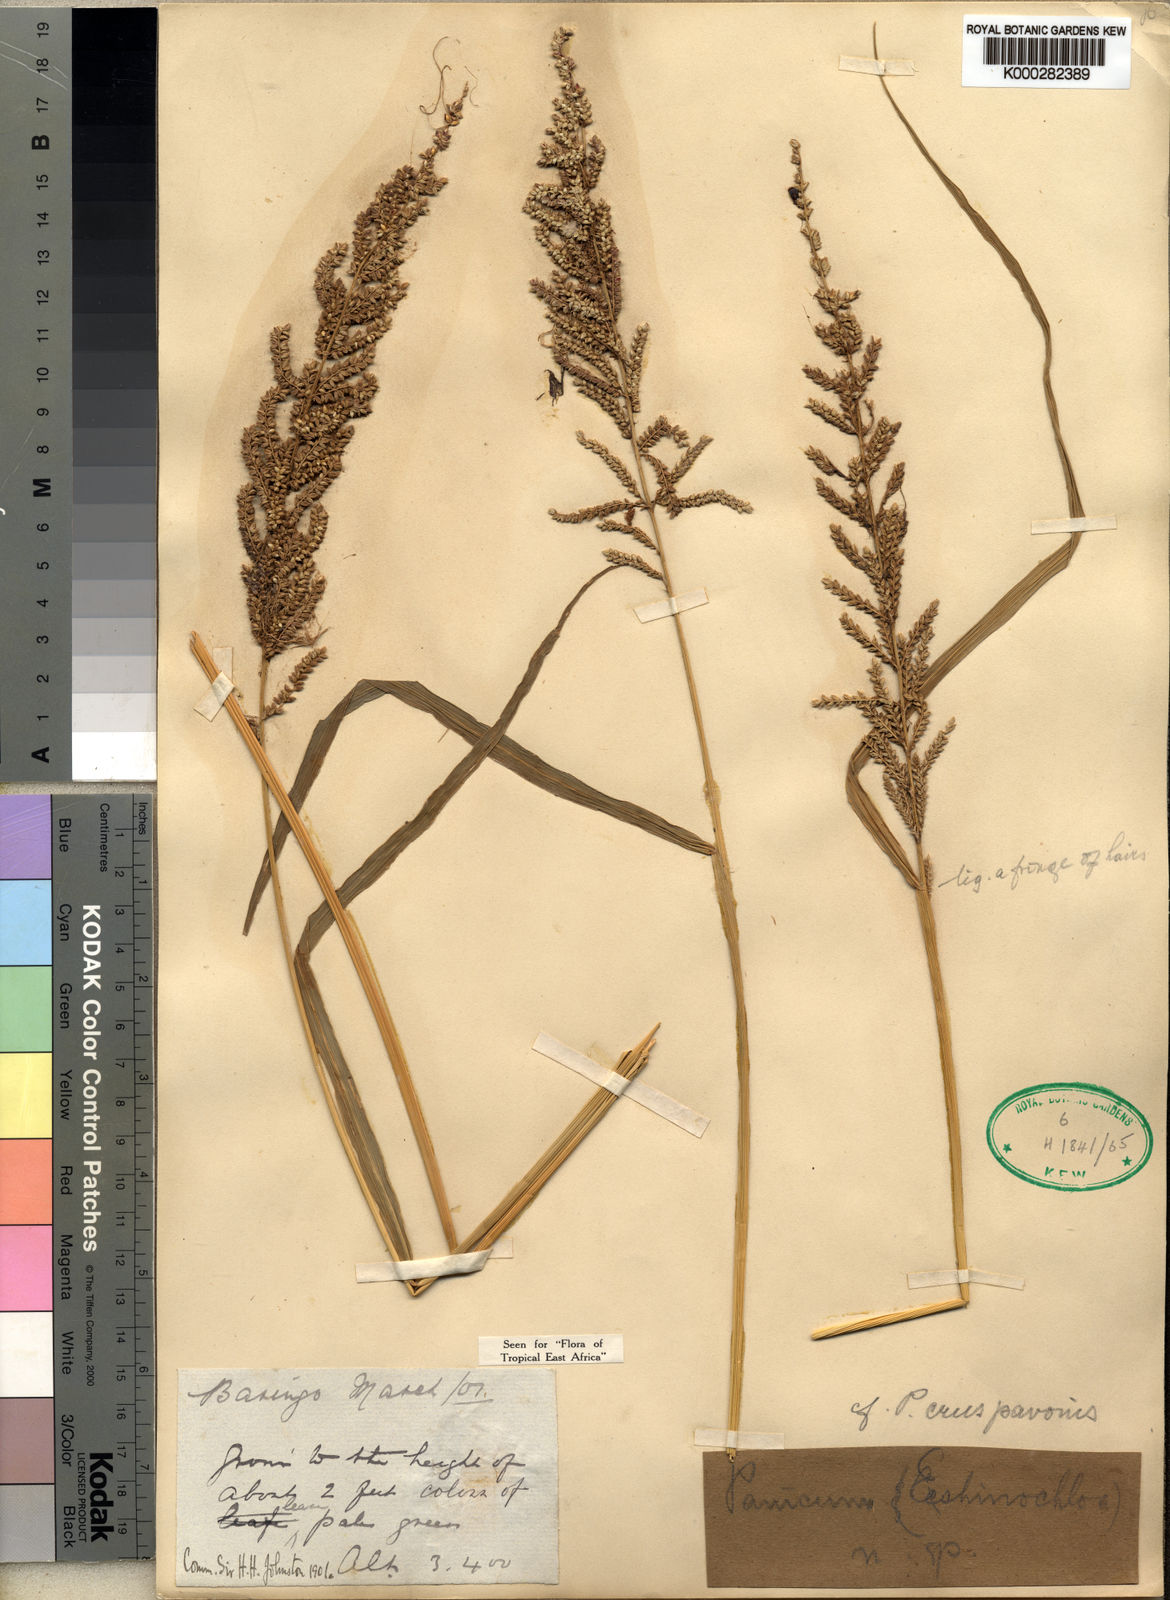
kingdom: Plantae
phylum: Tracheophyta
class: Liliopsida
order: Poales
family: Poaceae
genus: Echinochloa
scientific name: Echinochloa haploclada
